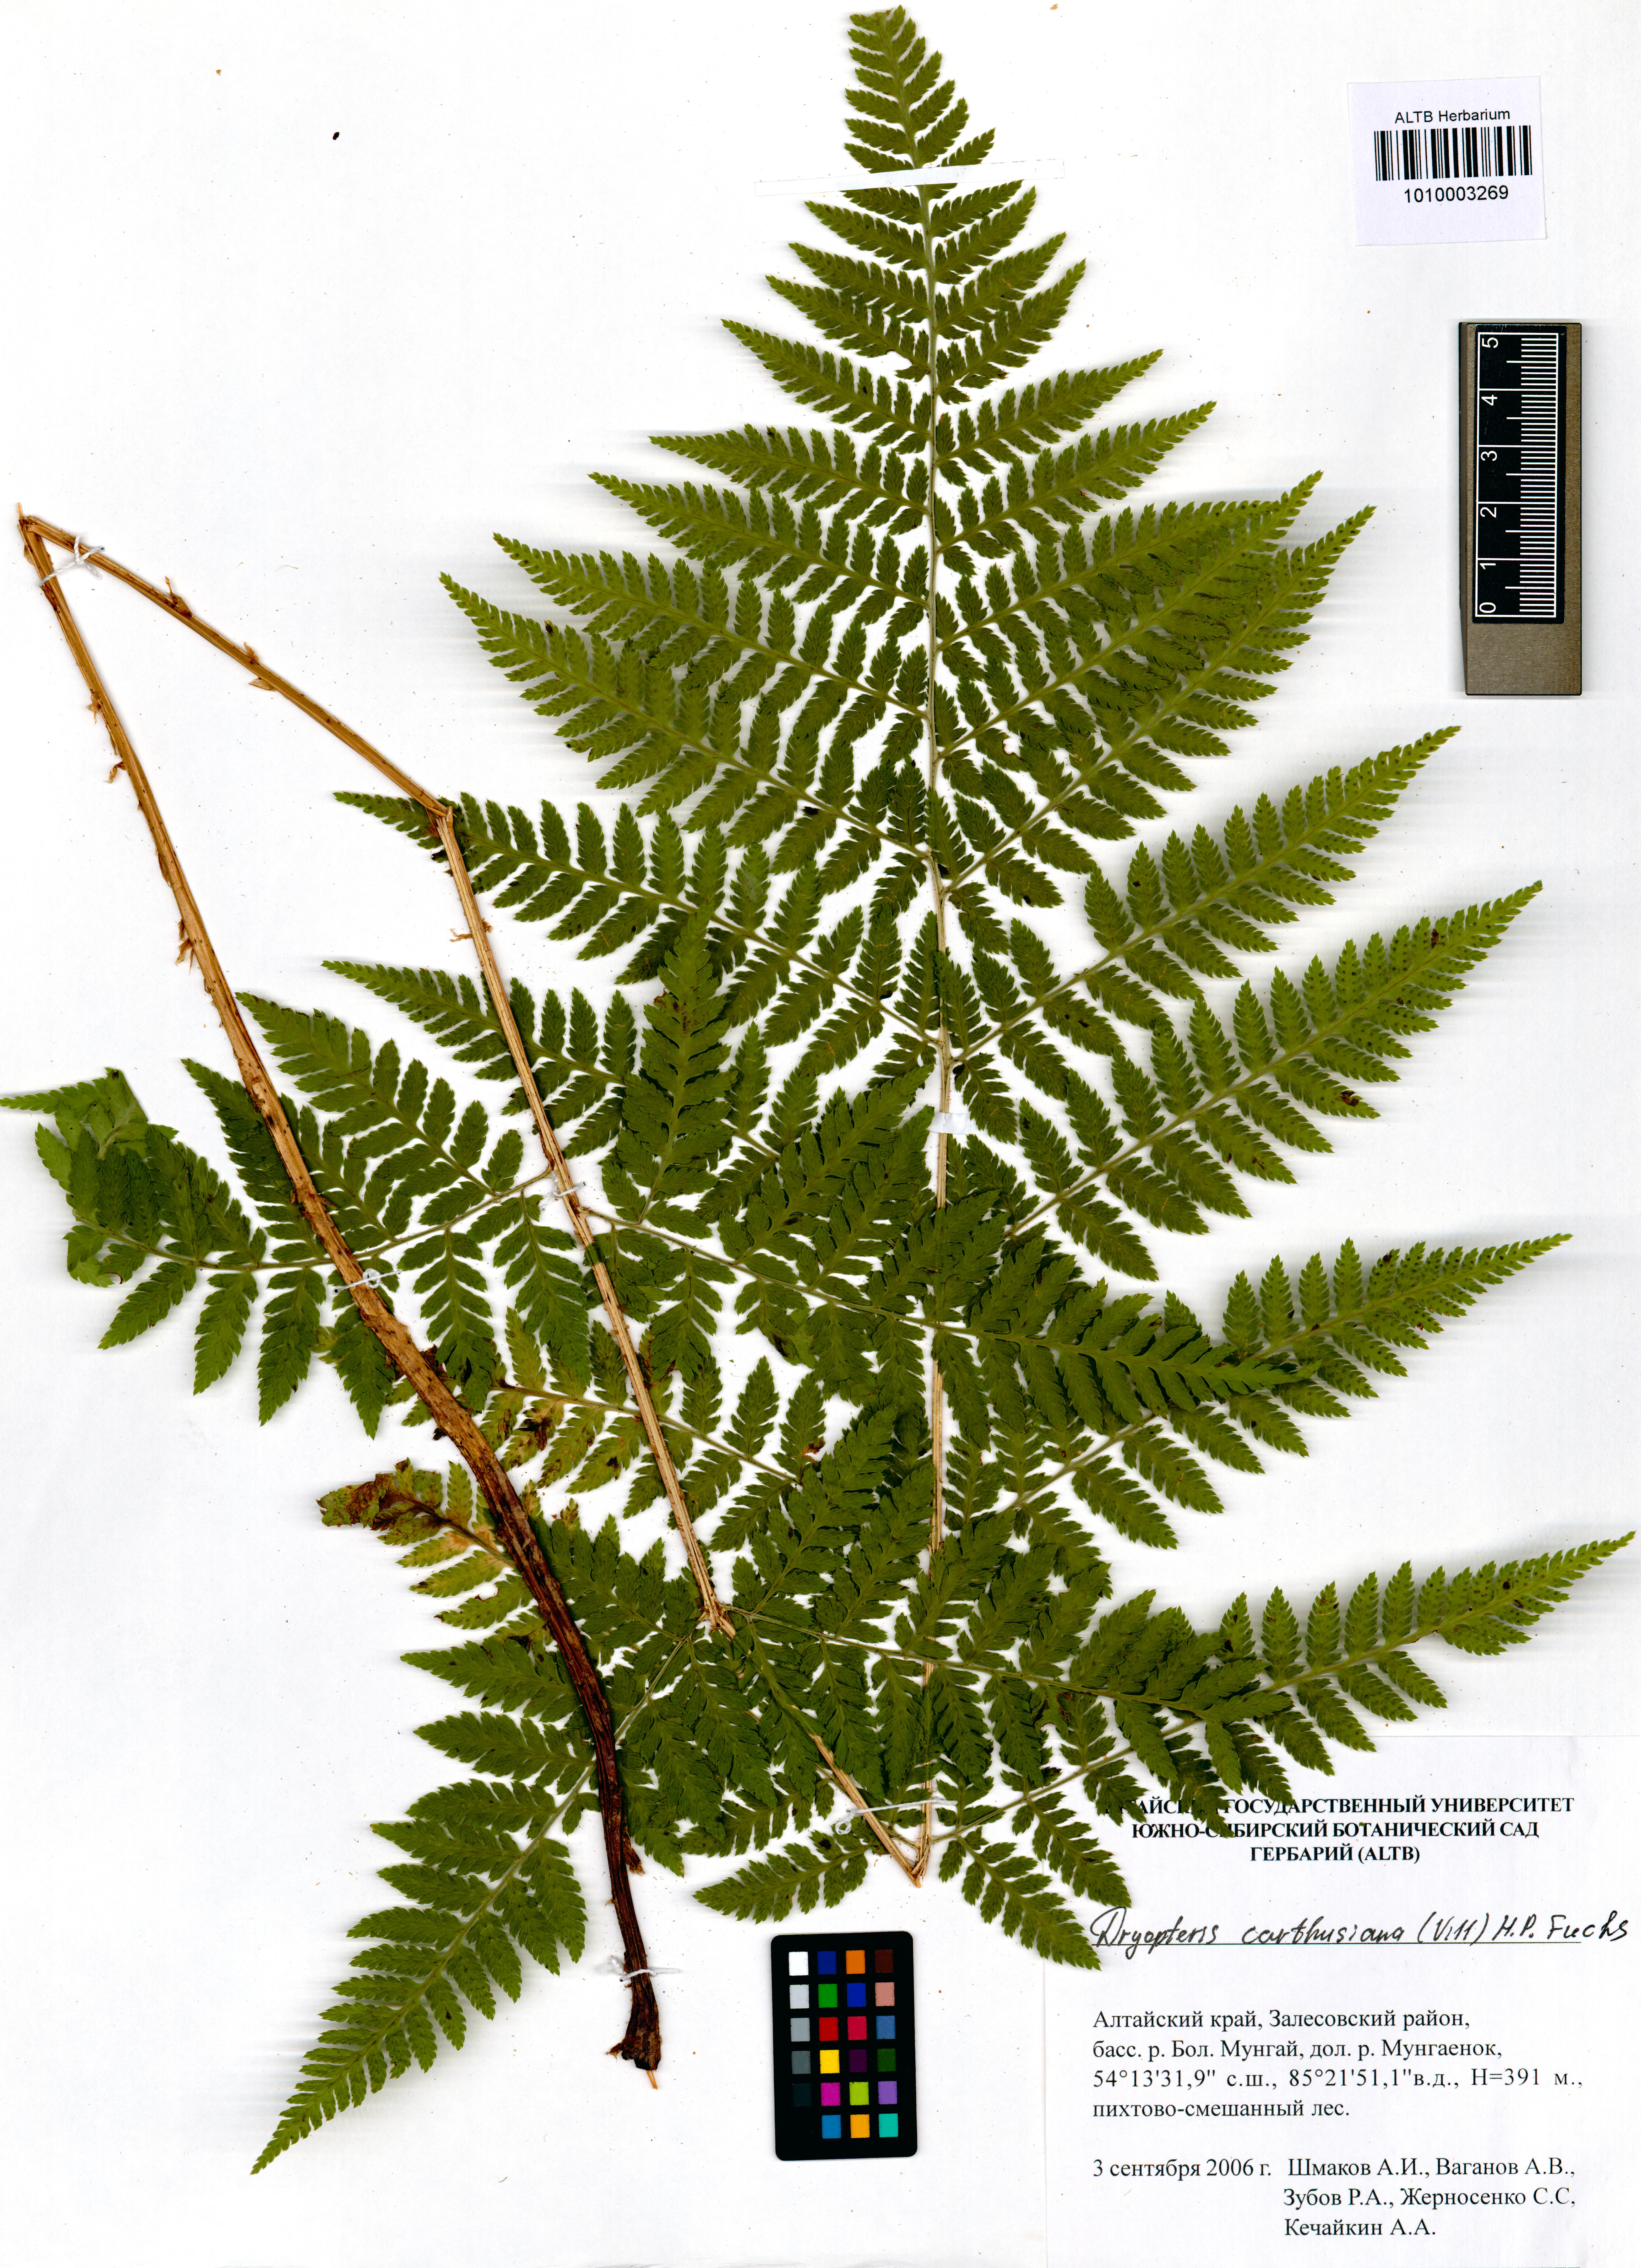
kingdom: Plantae
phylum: Tracheophyta
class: Polypodiopsida
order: Polypodiales
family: Dryopteridaceae
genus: Dryopteris
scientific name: Dryopteris carthusiana
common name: Narrow buckler-fern
